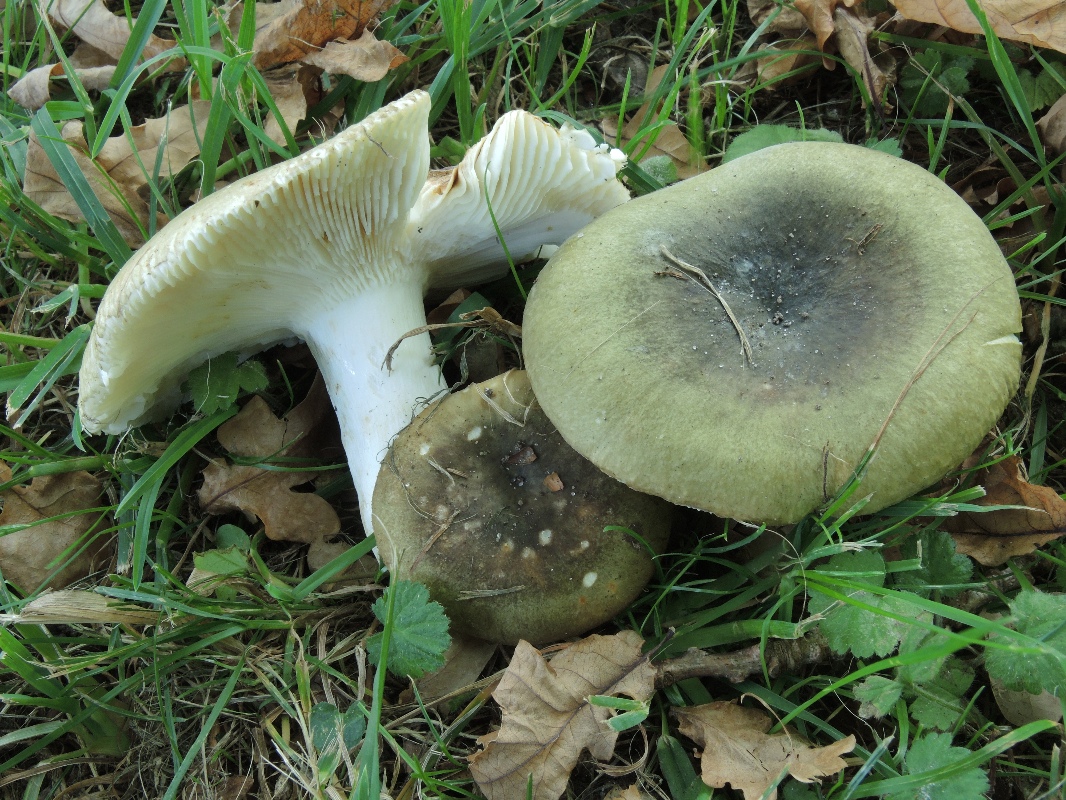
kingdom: Fungi
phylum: Basidiomycota
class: Agaricomycetes
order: Russulales
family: Russulaceae
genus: Russula
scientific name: Russula heterophylla
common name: gaffelbladet skørhat
